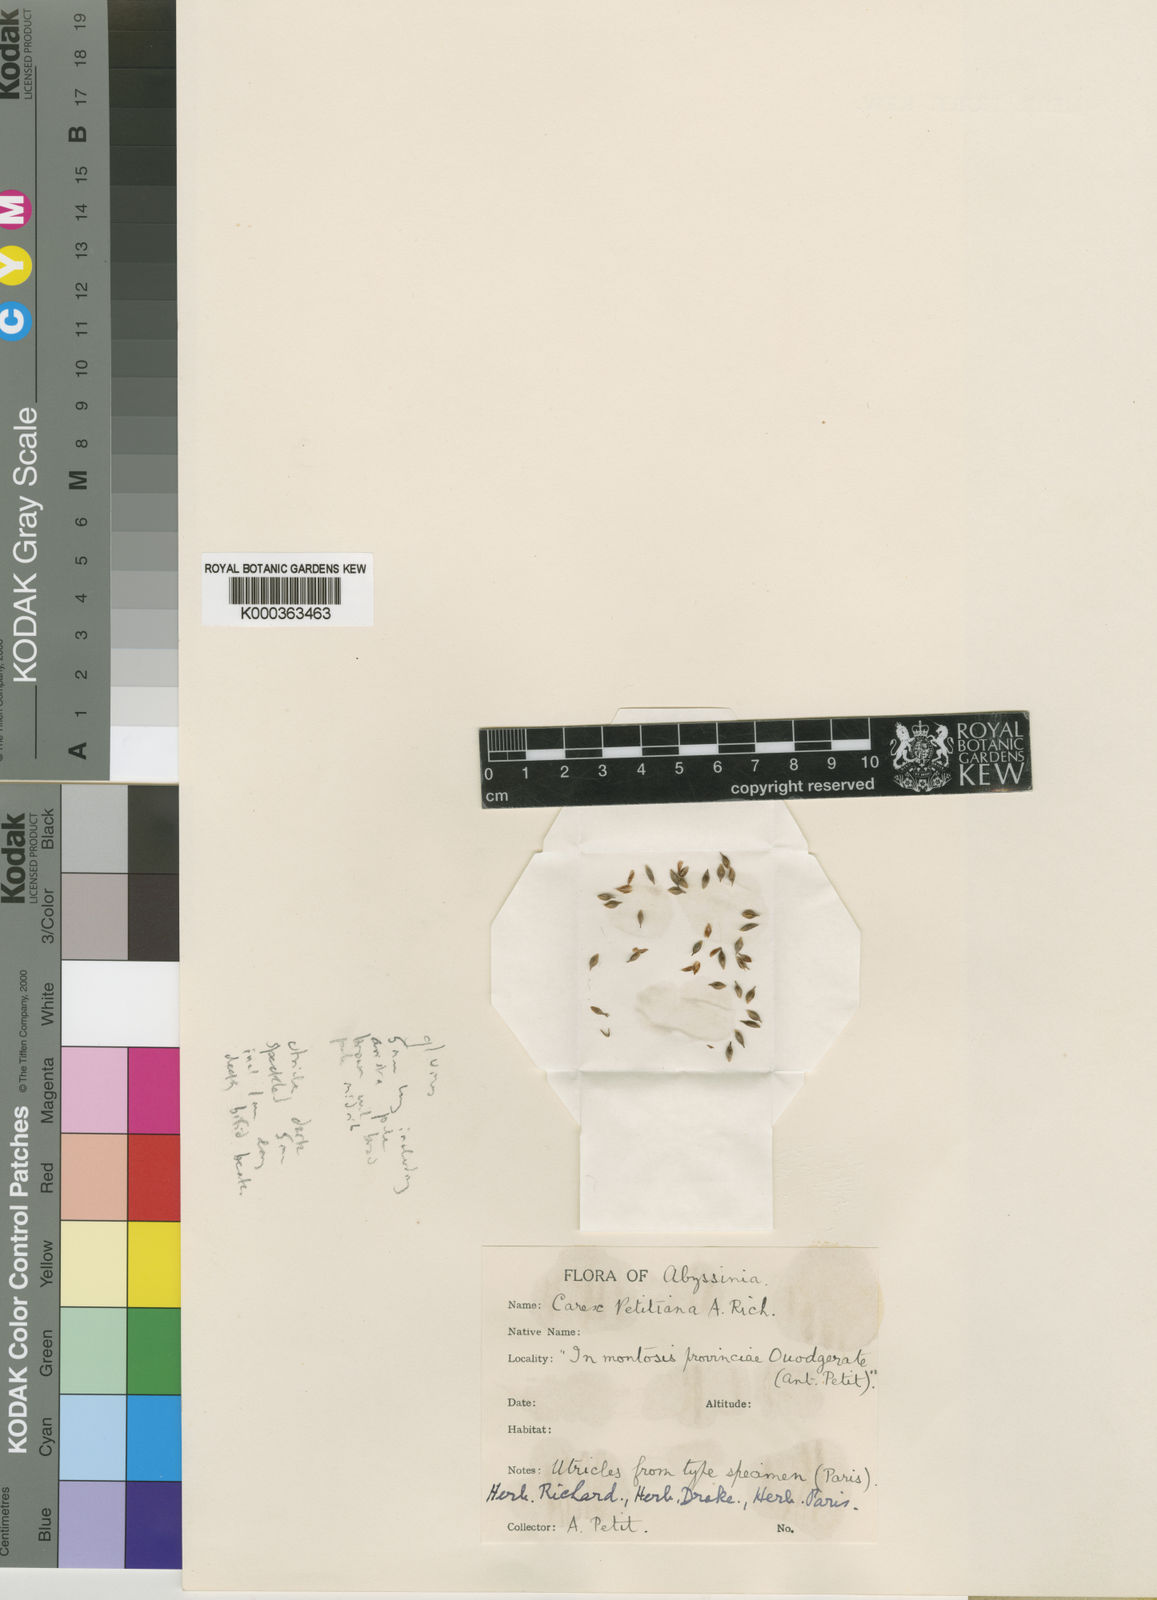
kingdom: Plantae
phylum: Tracheophyta
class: Liliopsida
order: Poales
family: Cyperaceae
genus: Carex
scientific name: Carex petitiana
